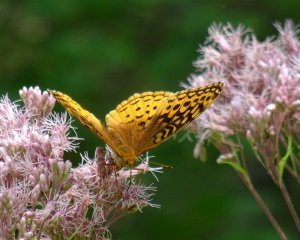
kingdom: Animalia
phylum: Arthropoda
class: Insecta
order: Lepidoptera
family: Nymphalidae
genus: Speyeria
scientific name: Speyeria cybele
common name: Great Spangled Fritillary
